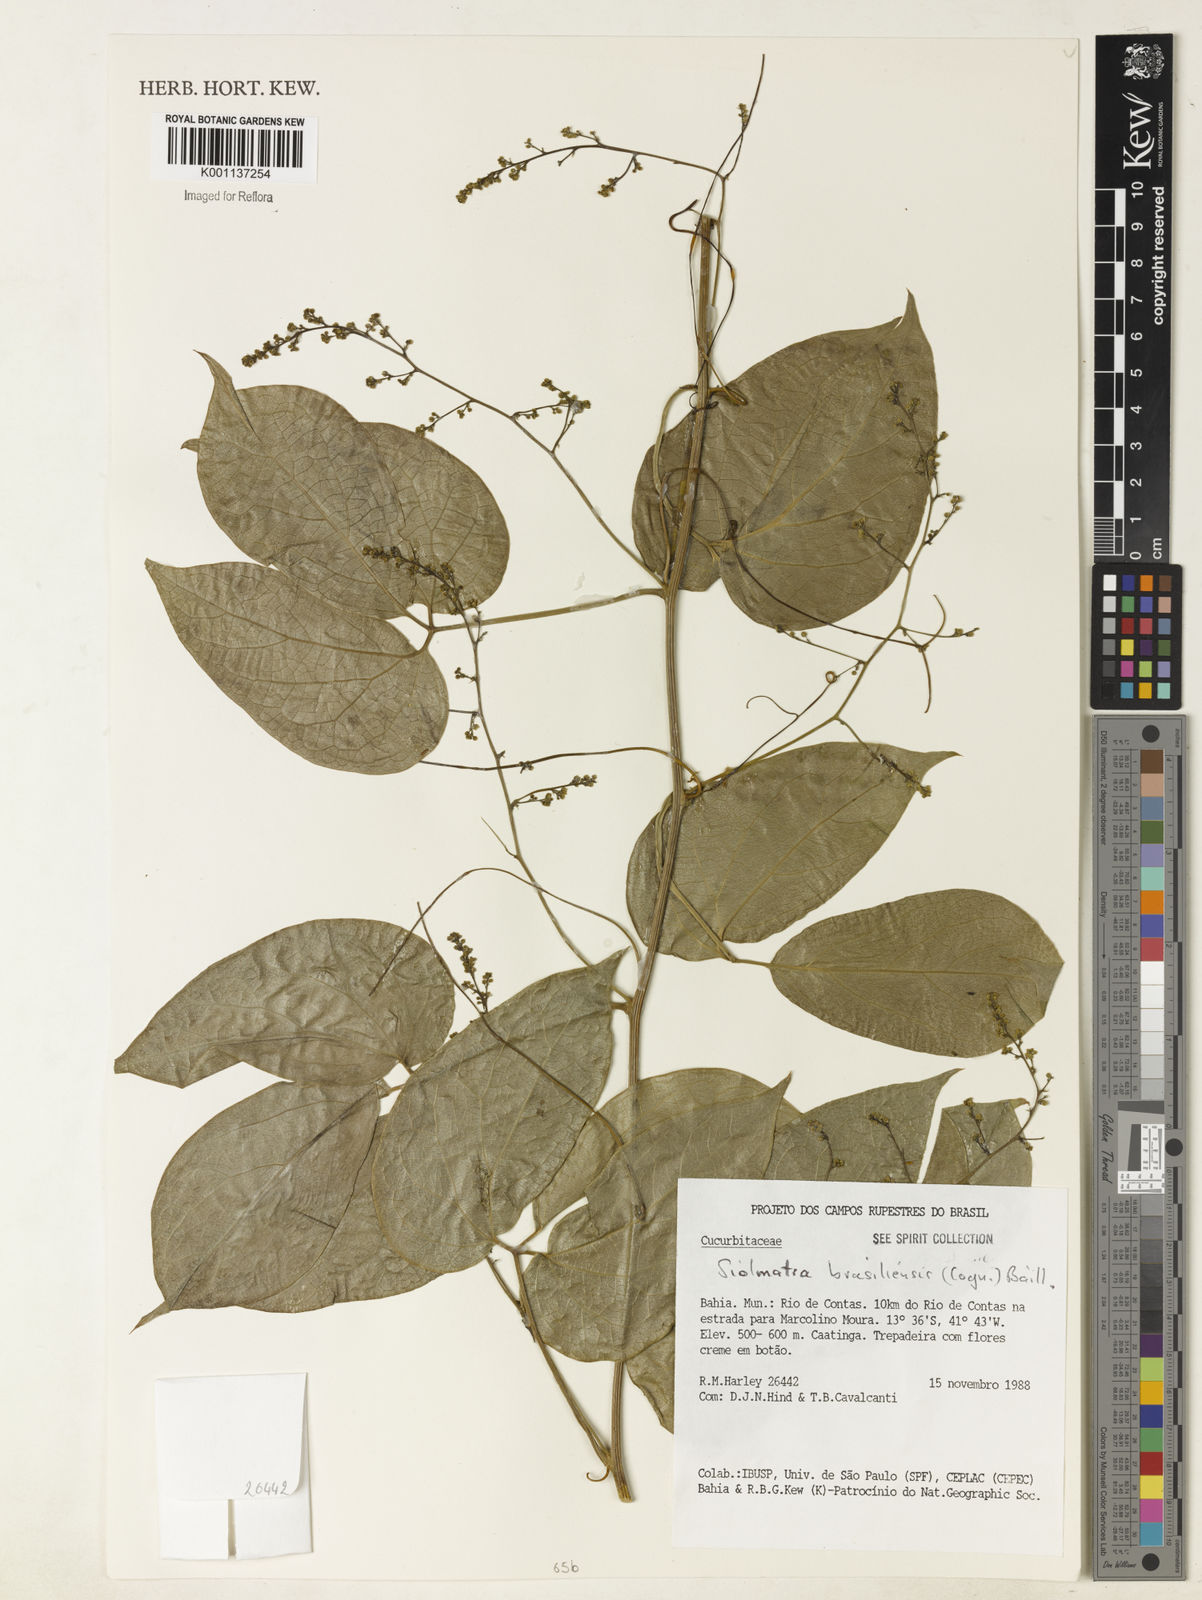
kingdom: Plantae
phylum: Tracheophyta
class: Magnoliopsida
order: Cucurbitales
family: Cucurbitaceae
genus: Siolmatra
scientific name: Siolmatra brasiliensis
